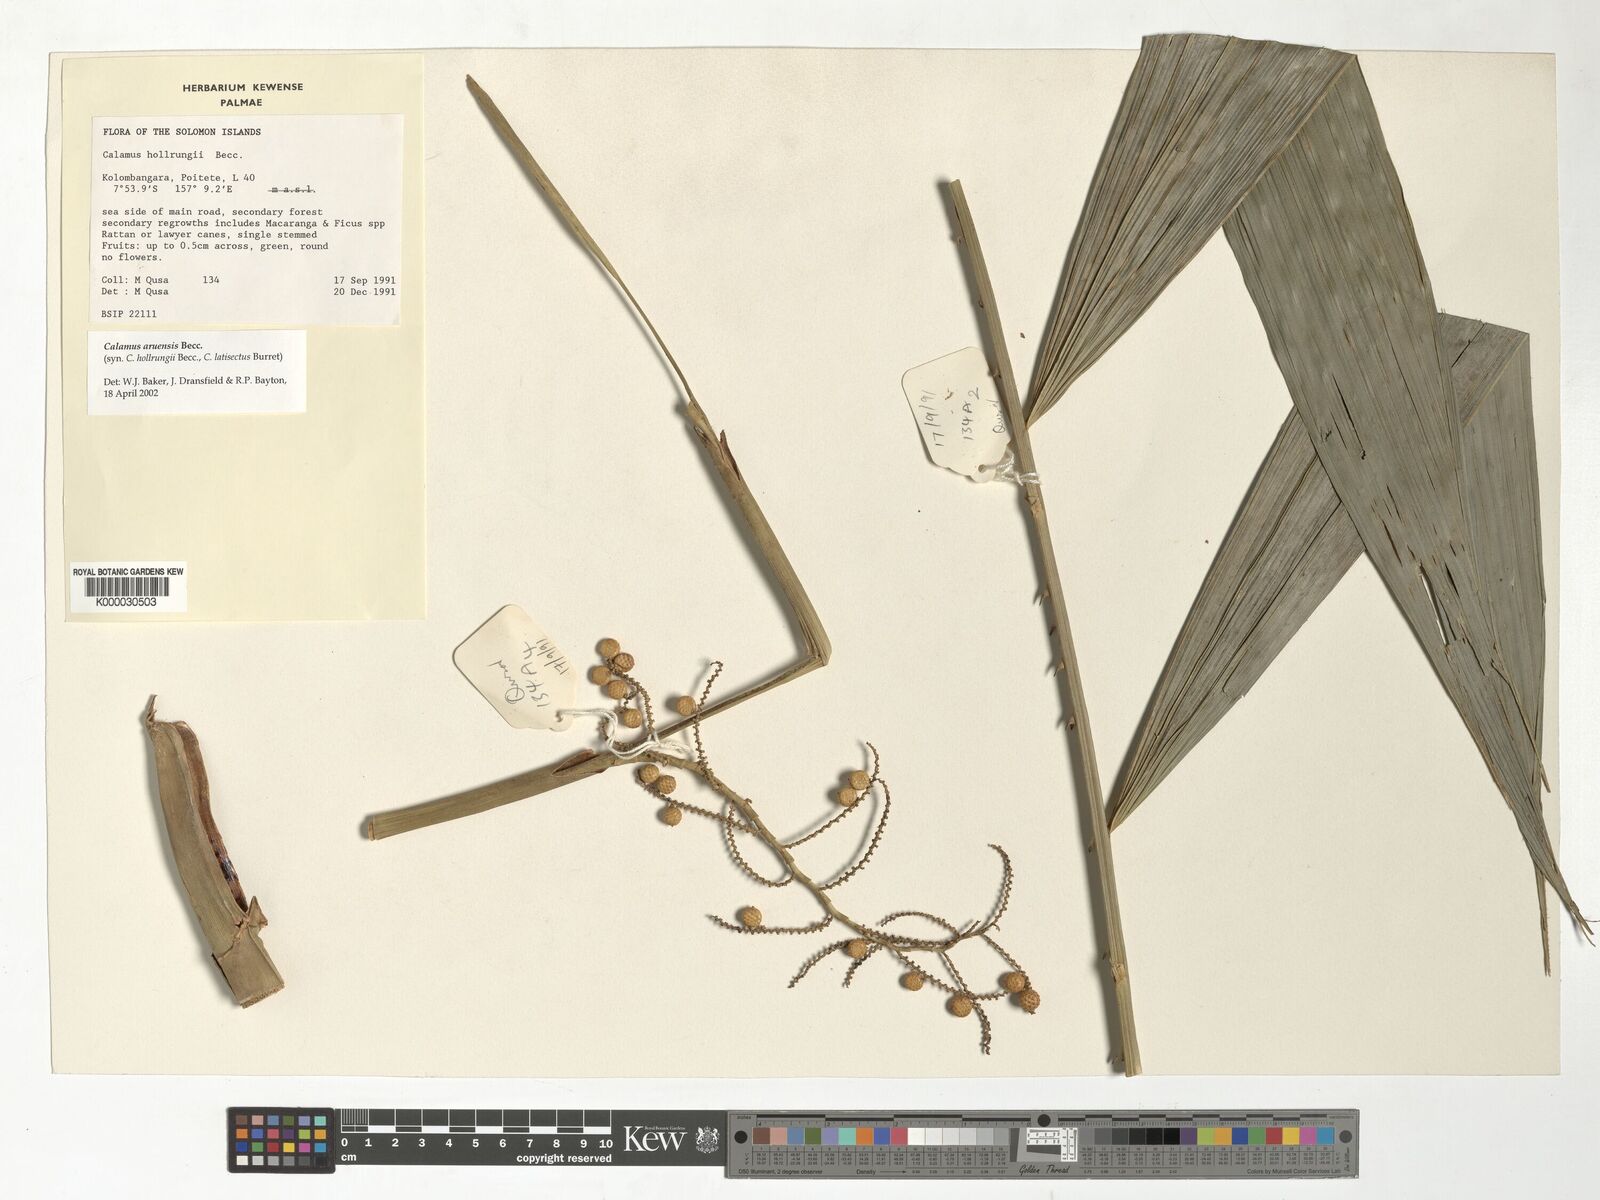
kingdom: Plantae
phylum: Tracheophyta
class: Liliopsida
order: Arecales
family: Arecaceae
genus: Calamus
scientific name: Calamus aruensis
